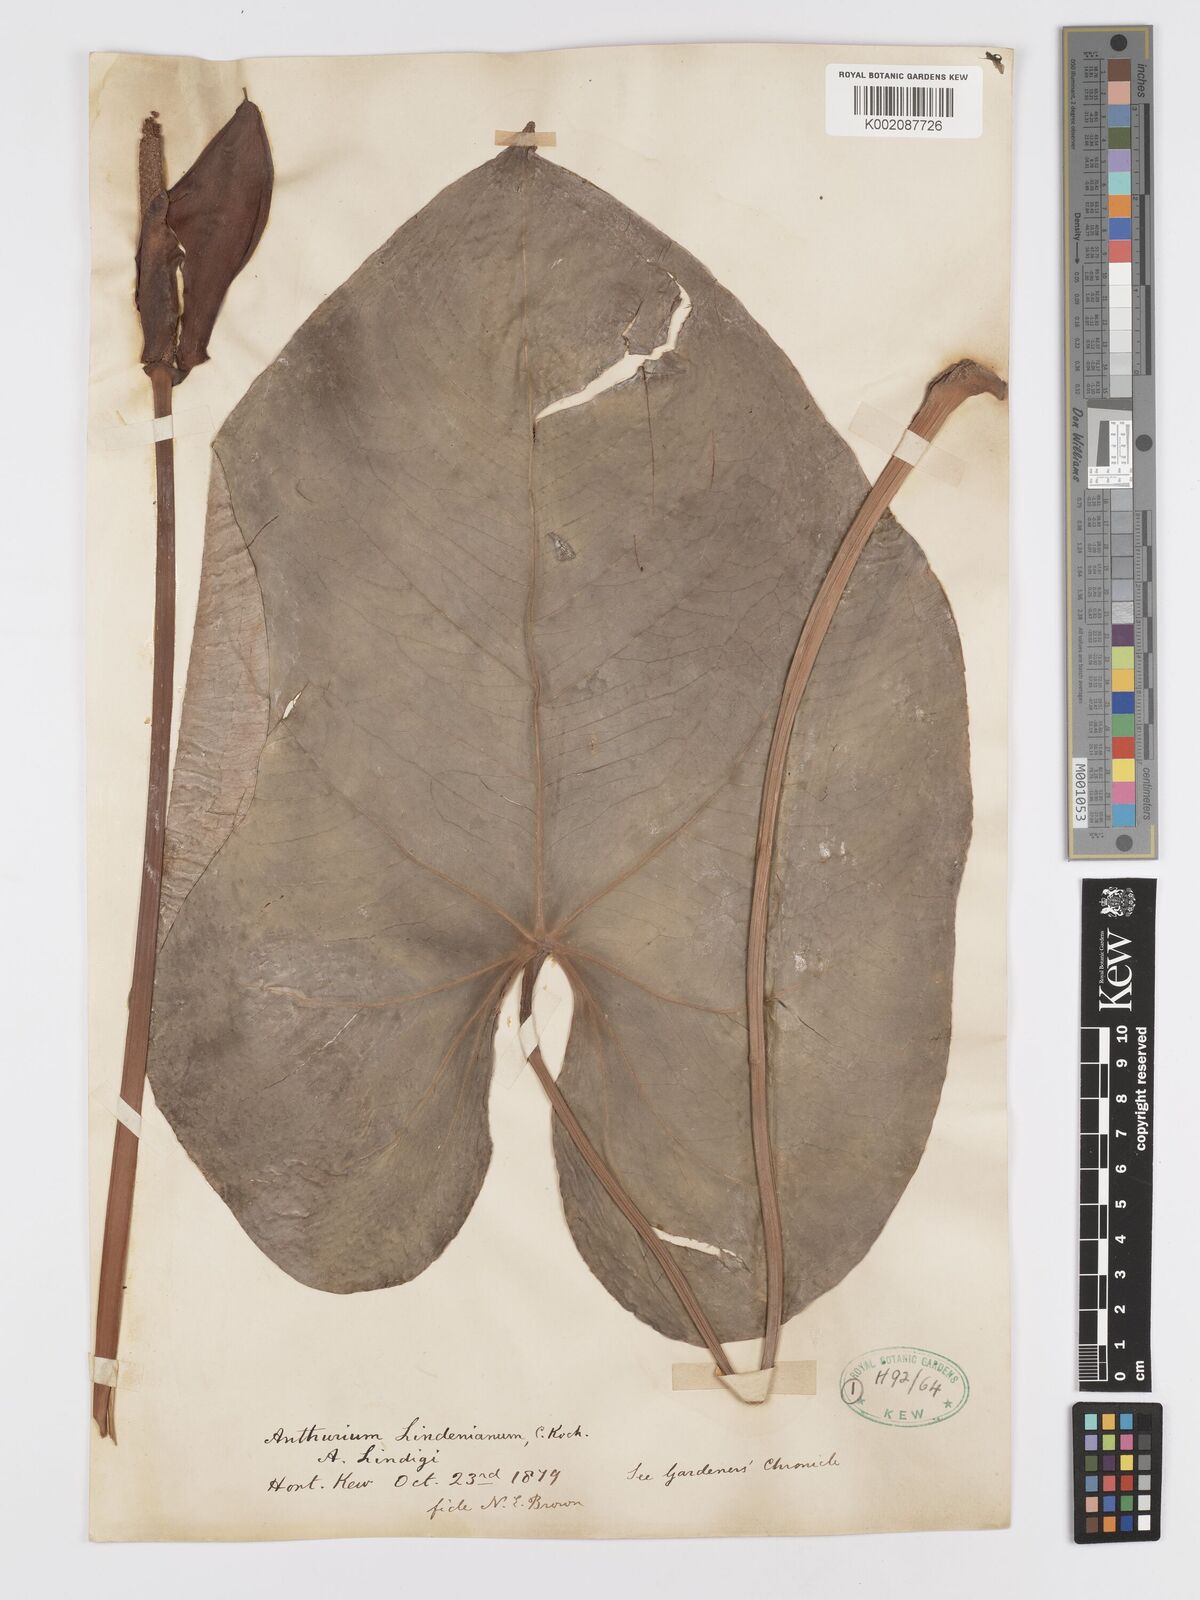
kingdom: Plantae
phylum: Tracheophyta
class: Liliopsida
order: Alismatales
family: Araceae
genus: Anthurium
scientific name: Anthurium lindenianum
